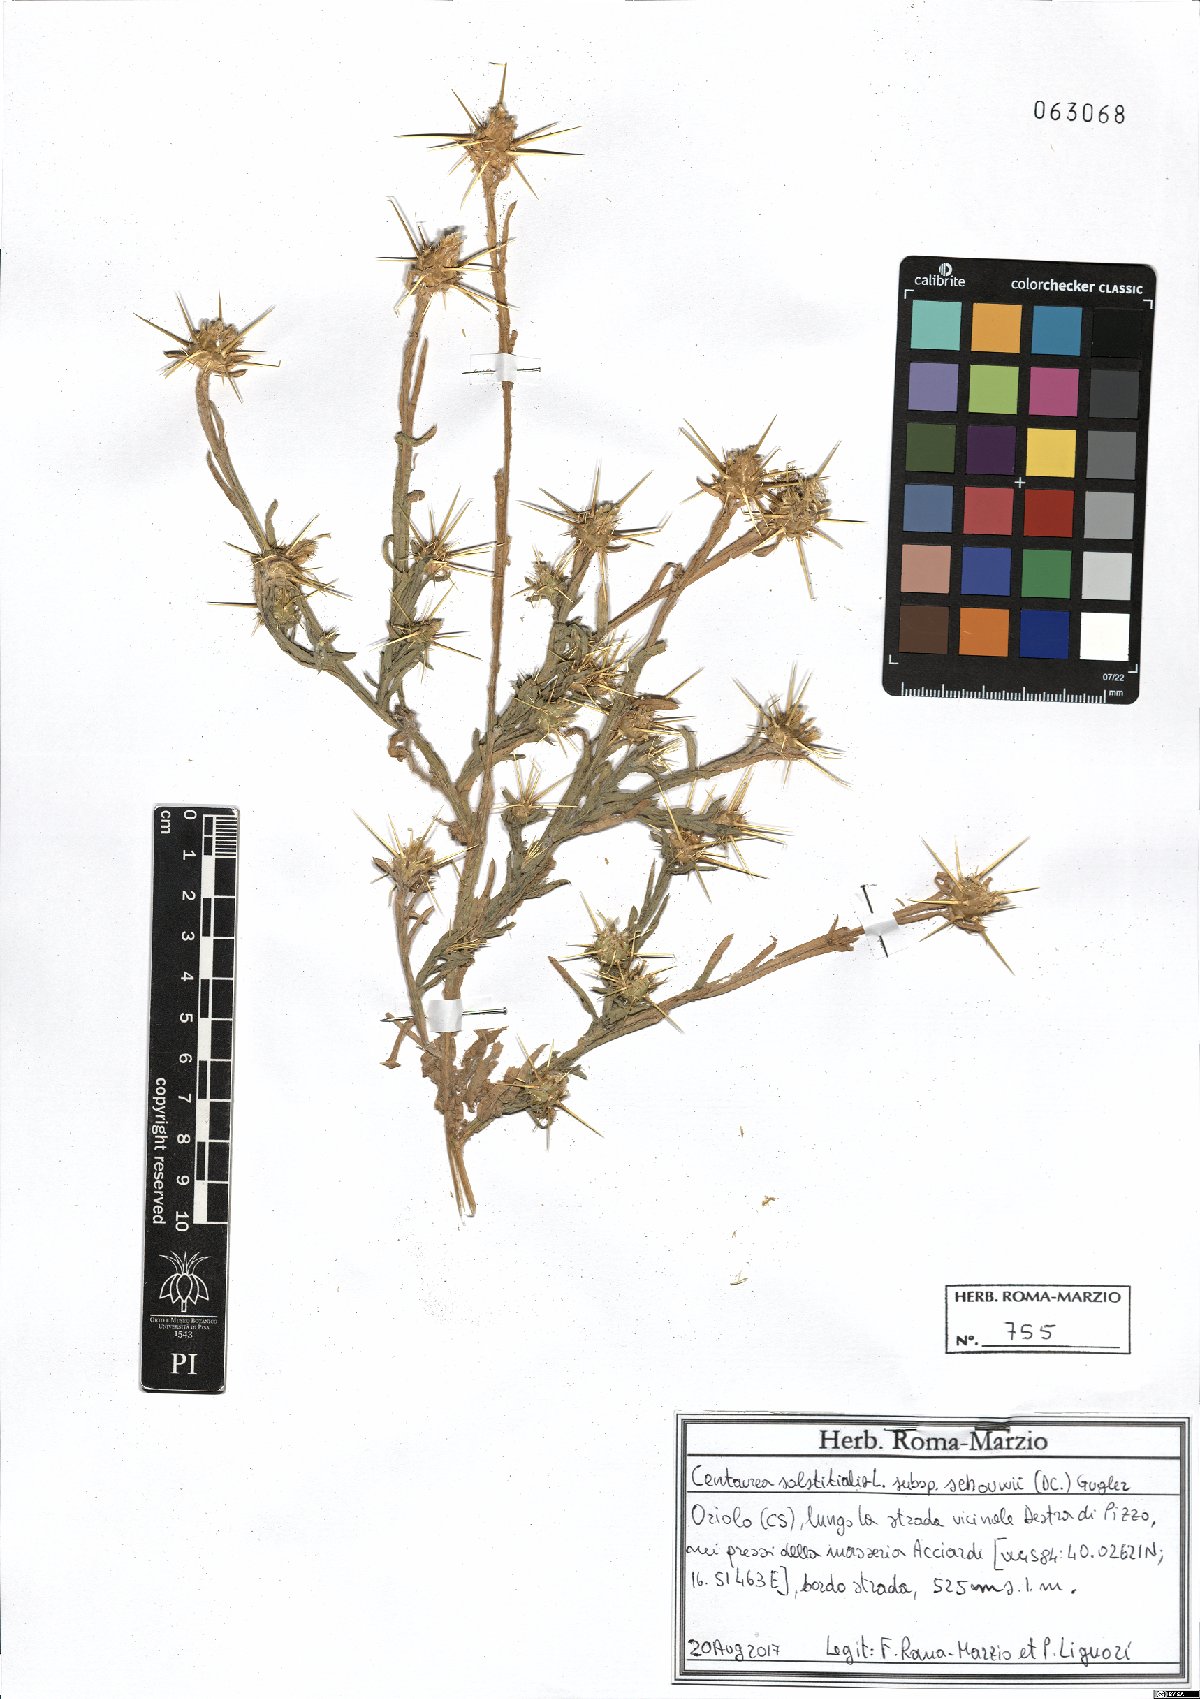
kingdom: Plantae
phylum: Tracheophyta
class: Magnoliopsida
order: Asterales
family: Asteraceae
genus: Centaurea
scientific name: Centaurea solstitialis
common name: Yellow star-thistle
